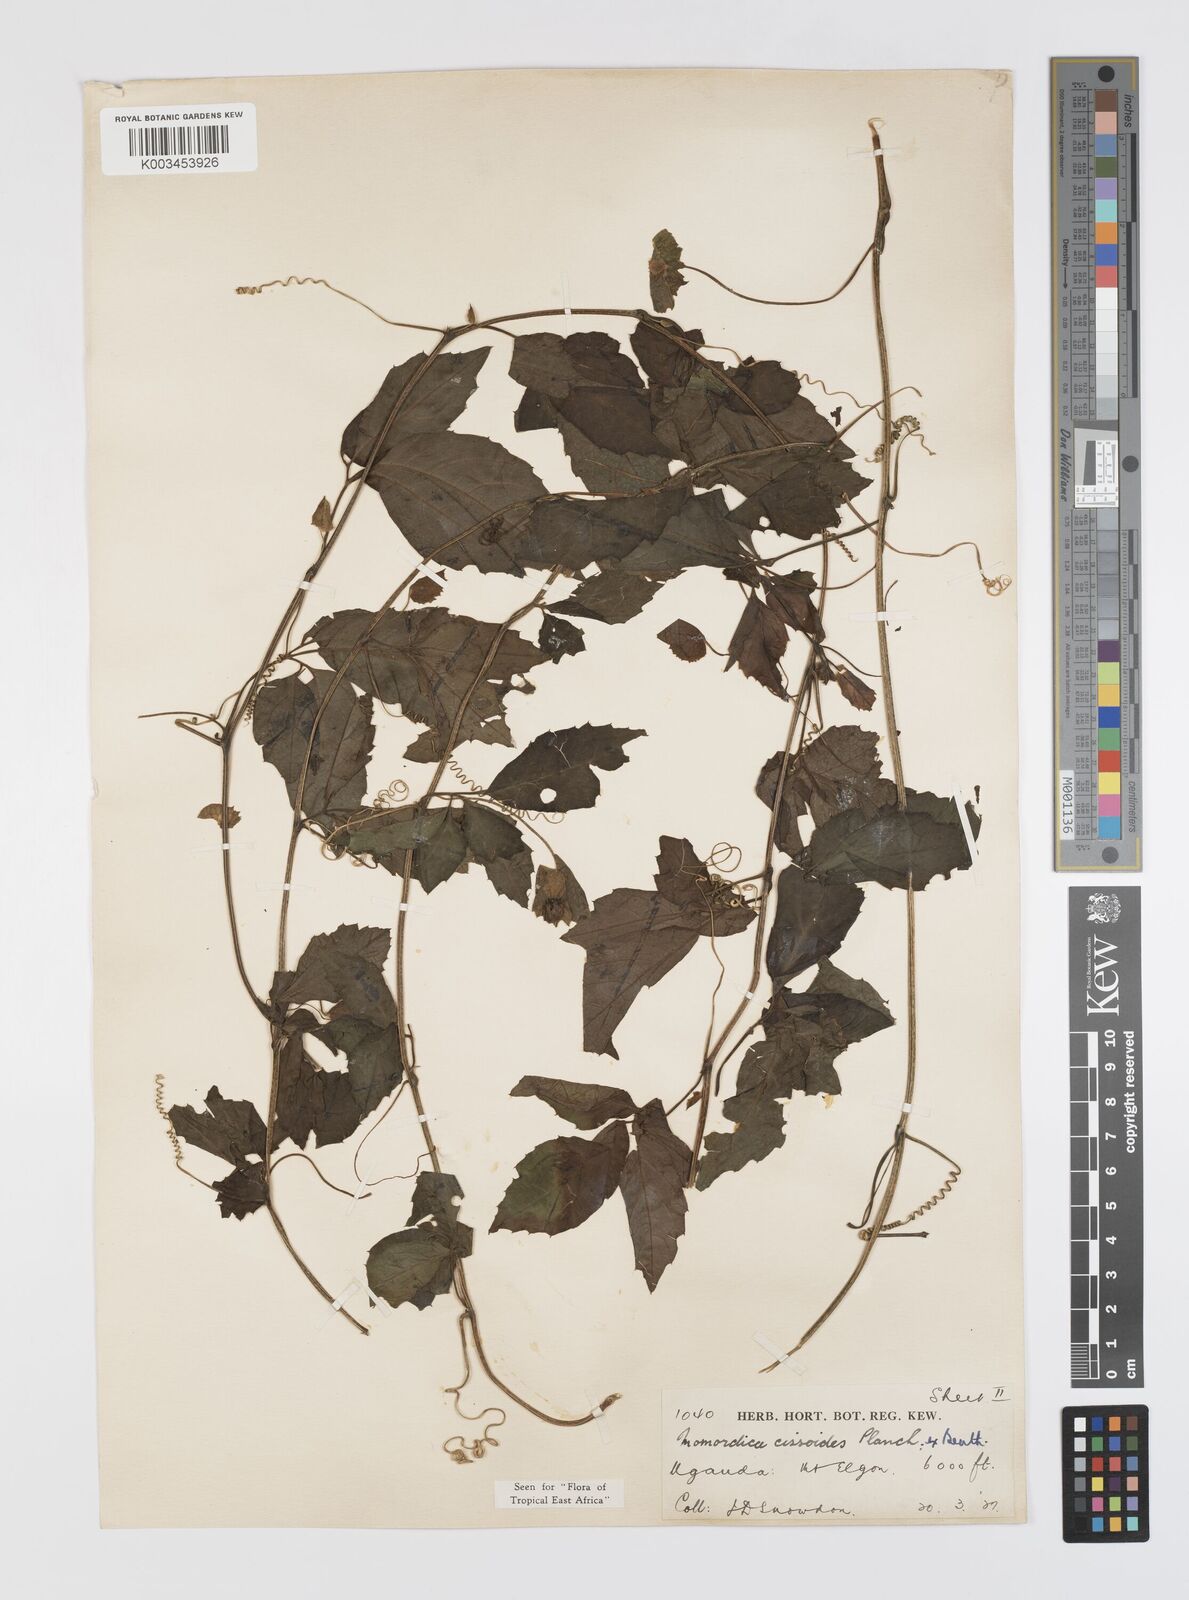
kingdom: Plantae
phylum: Tracheophyta
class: Magnoliopsida
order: Cucurbitales
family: Cucurbitaceae
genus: Momordica
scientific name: Momordica cissoides
